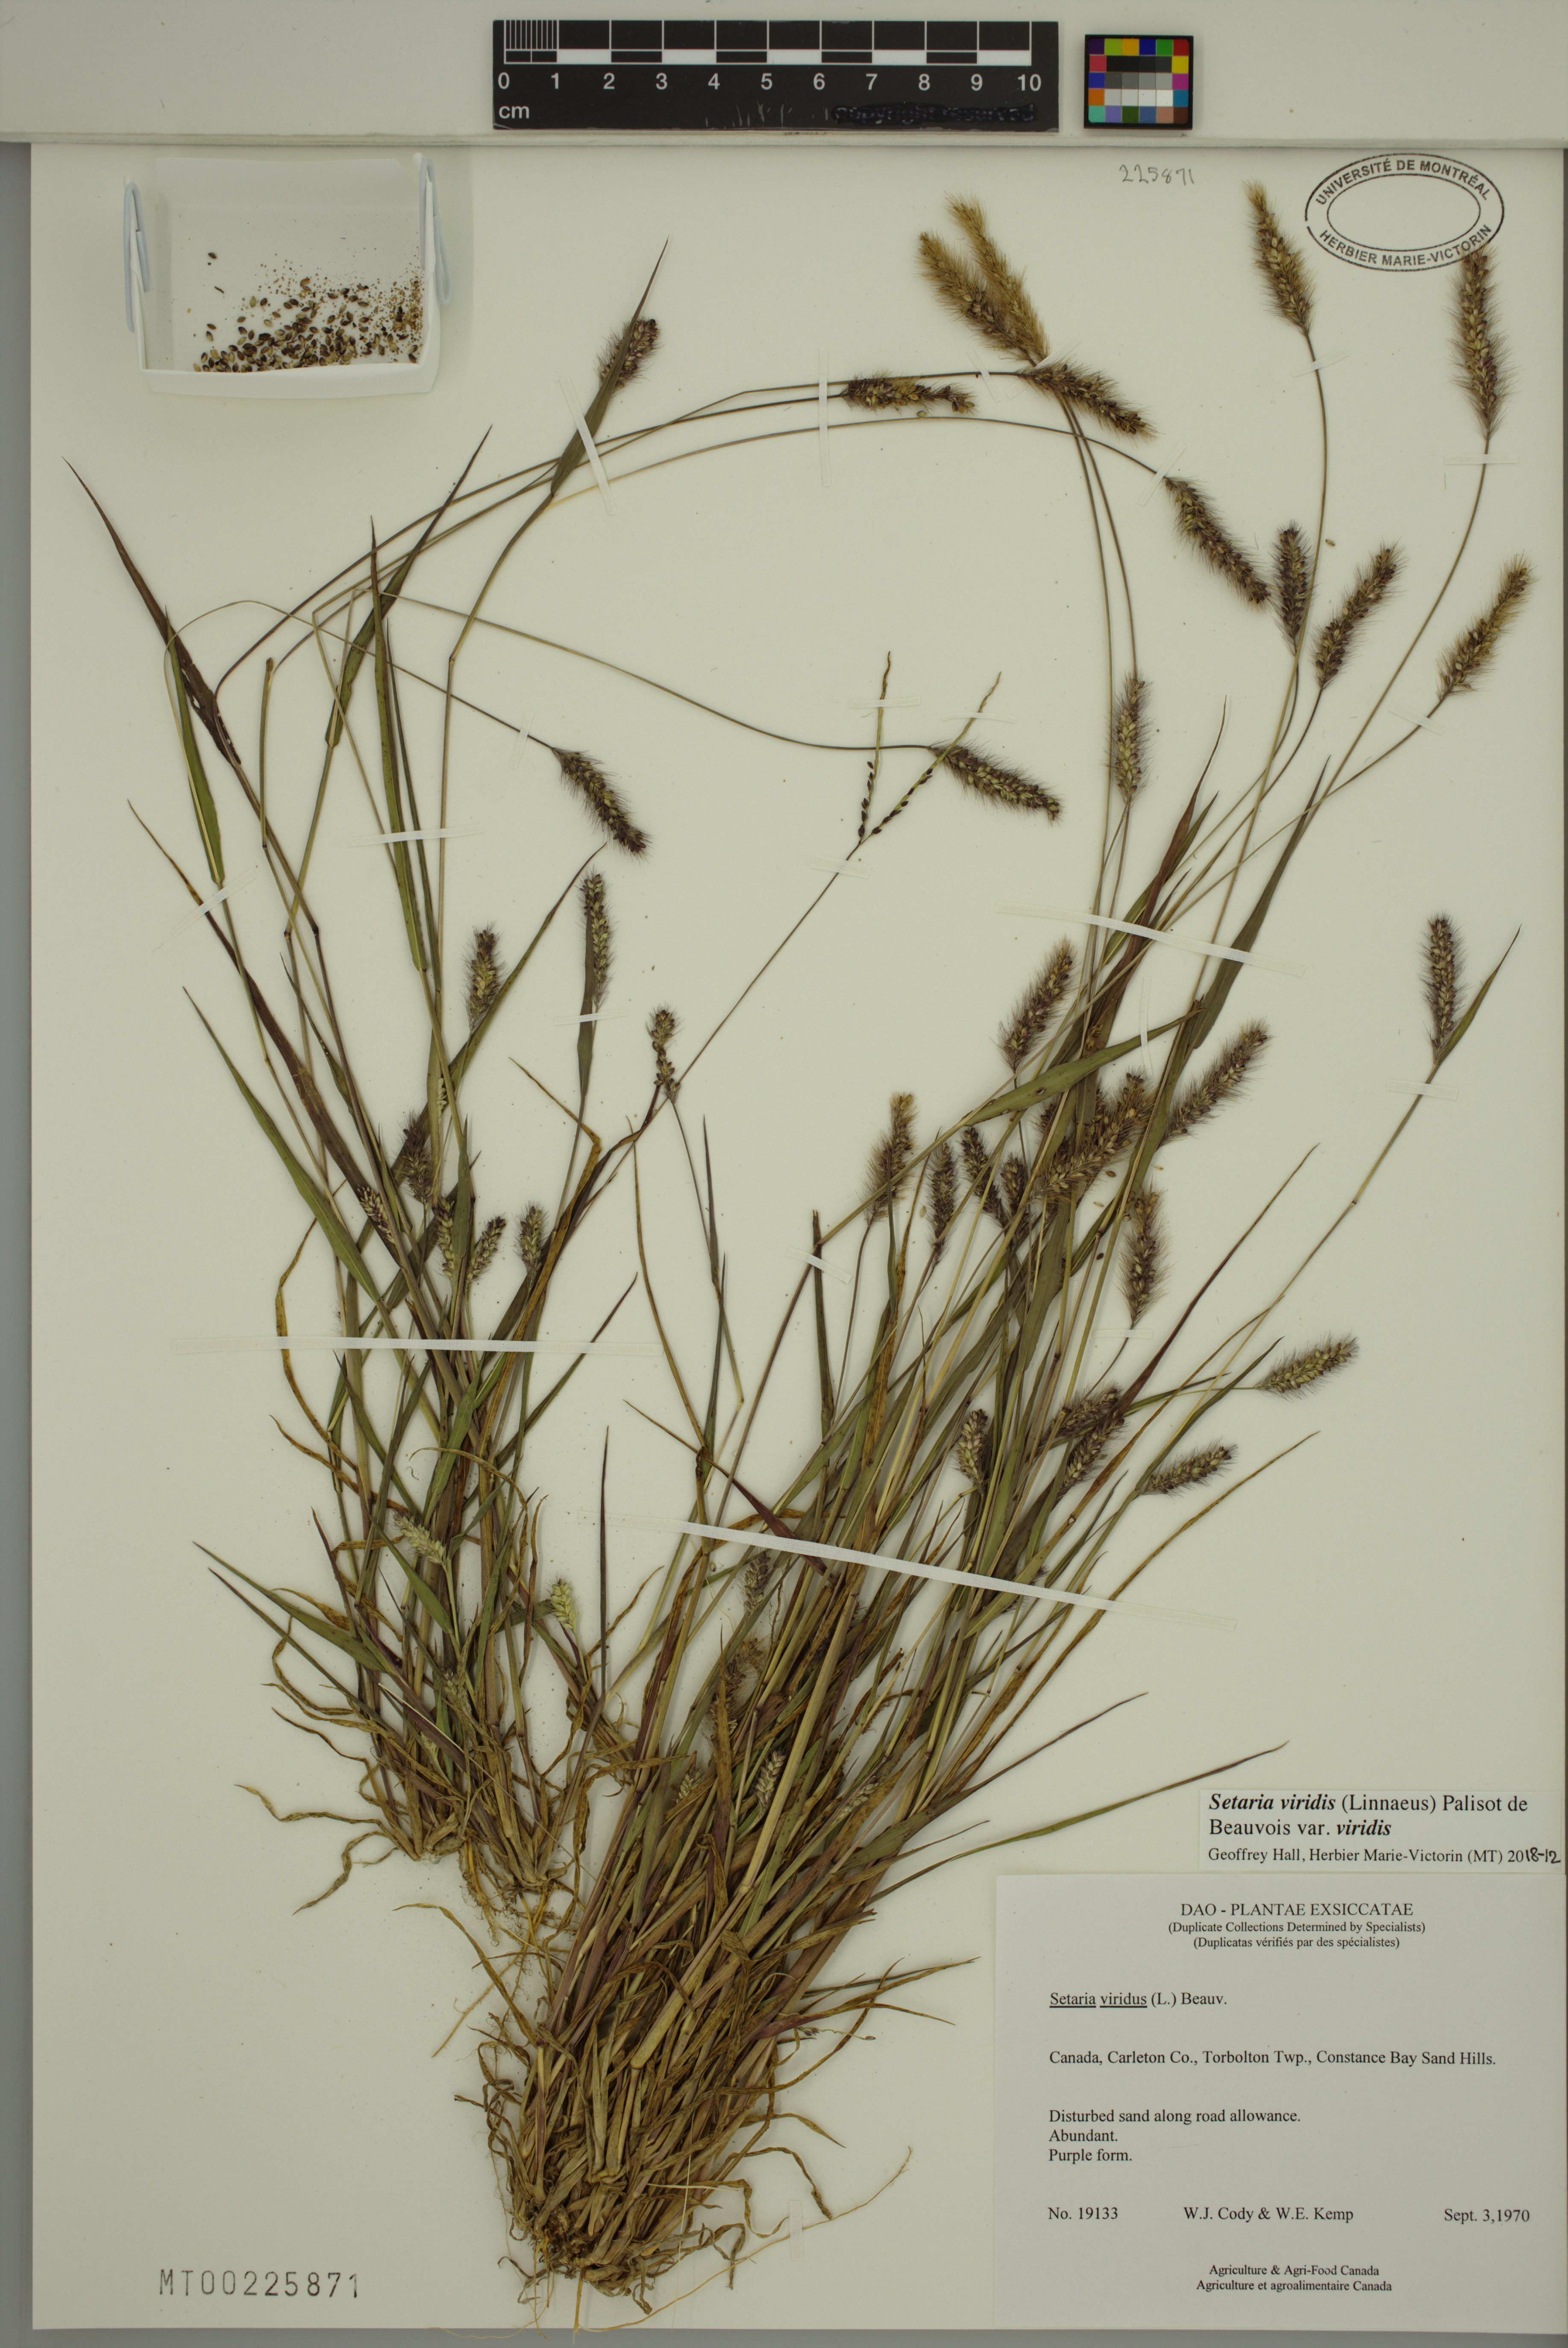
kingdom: Plantae
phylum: Tracheophyta
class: Liliopsida
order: Poales
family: Poaceae
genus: Setaria
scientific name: Setaria viridis
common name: Green bristlegrass
